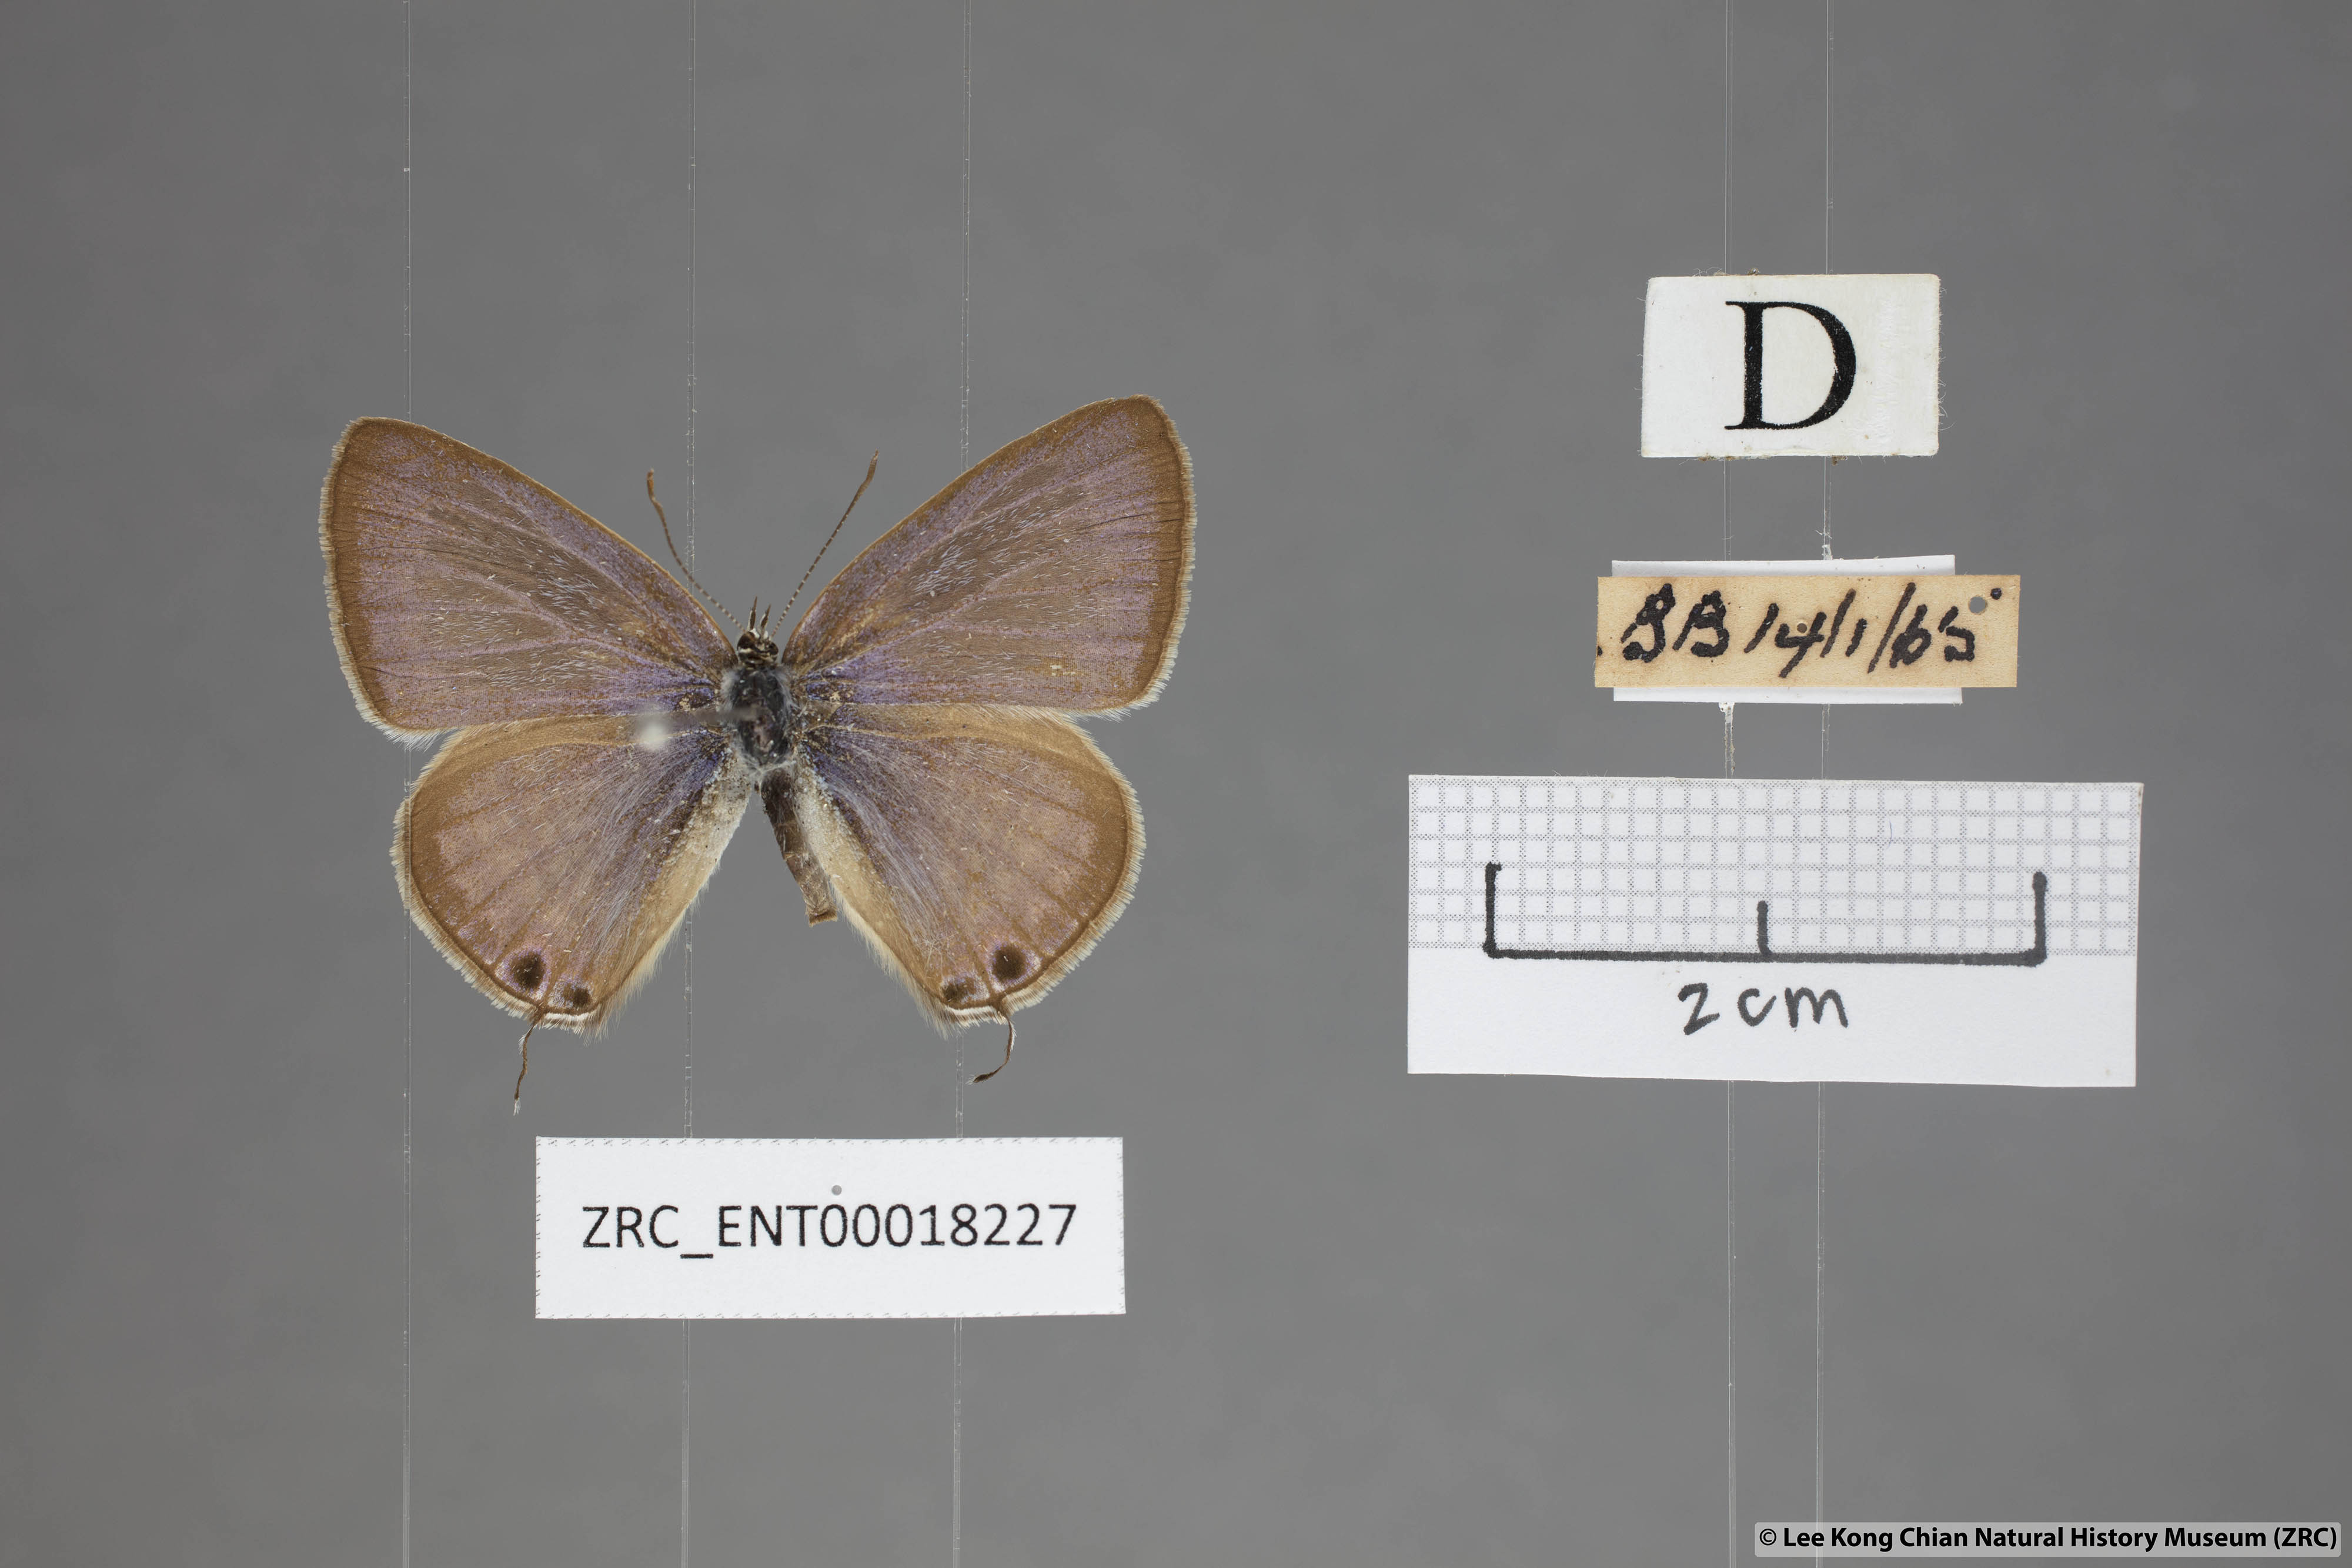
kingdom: Animalia
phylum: Arthropoda
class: Insecta
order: Lepidoptera
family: Lycaenidae
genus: Lampides
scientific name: Lampides boeticus
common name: Long-tailed blue
